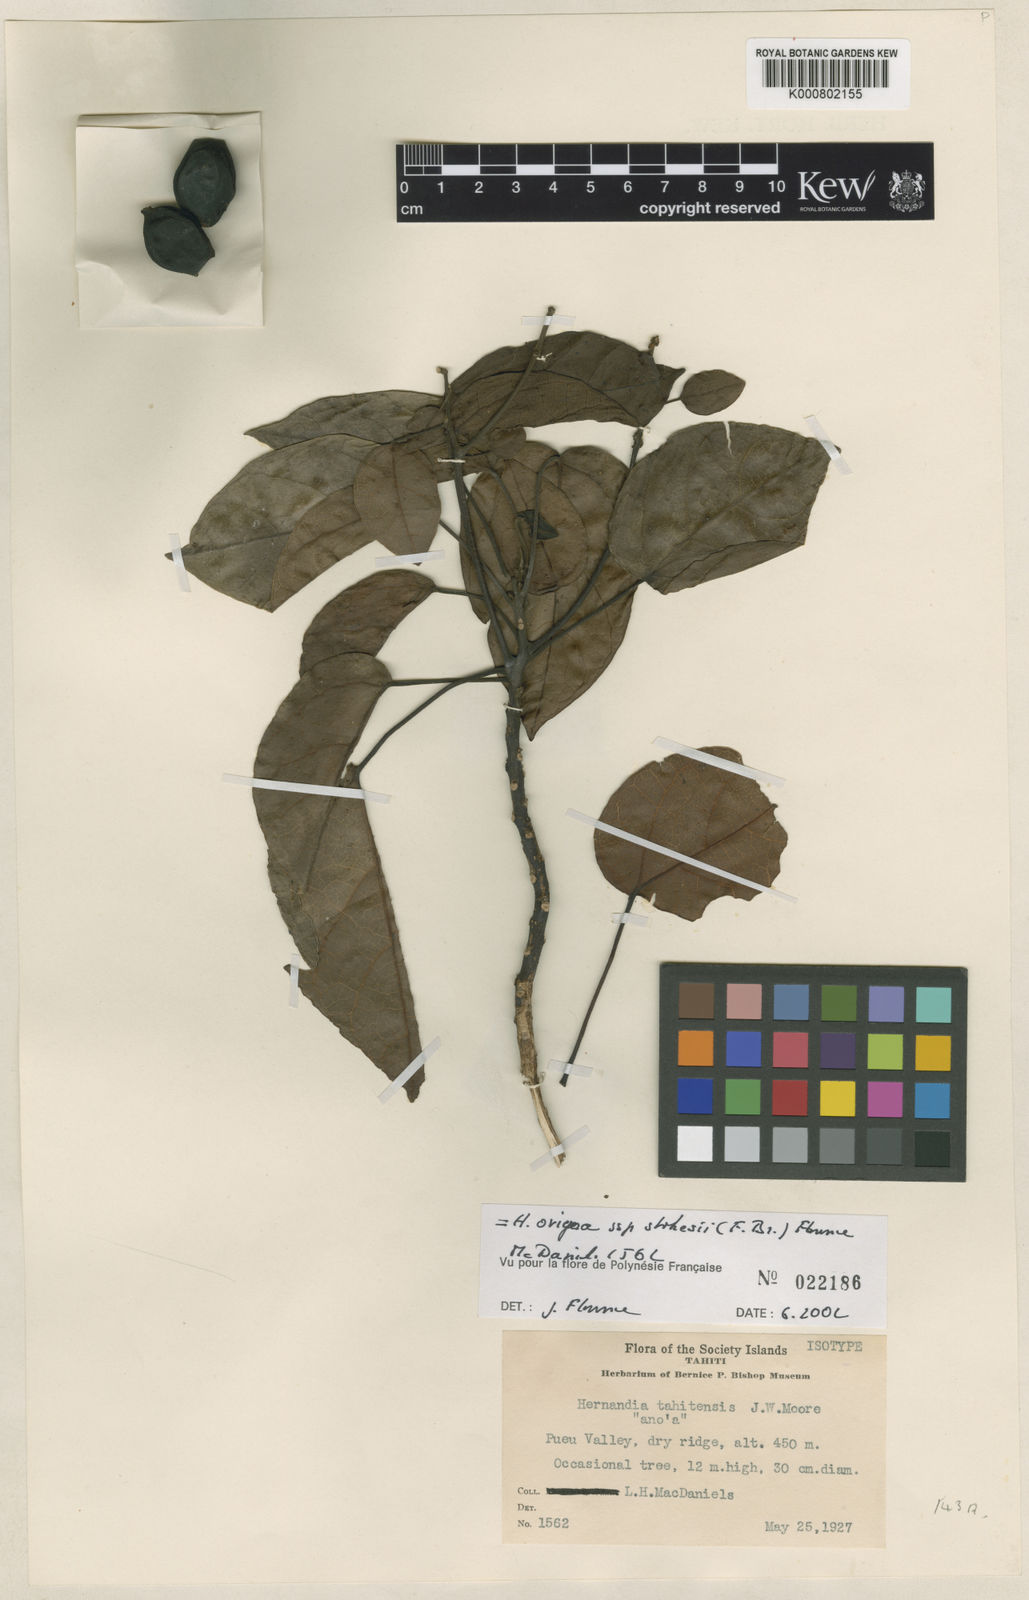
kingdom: Plantae
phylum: Tracheophyta
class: Magnoliopsida
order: Laurales
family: Hernandiaceae
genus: Hernandia
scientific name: Hernandia ovigera
